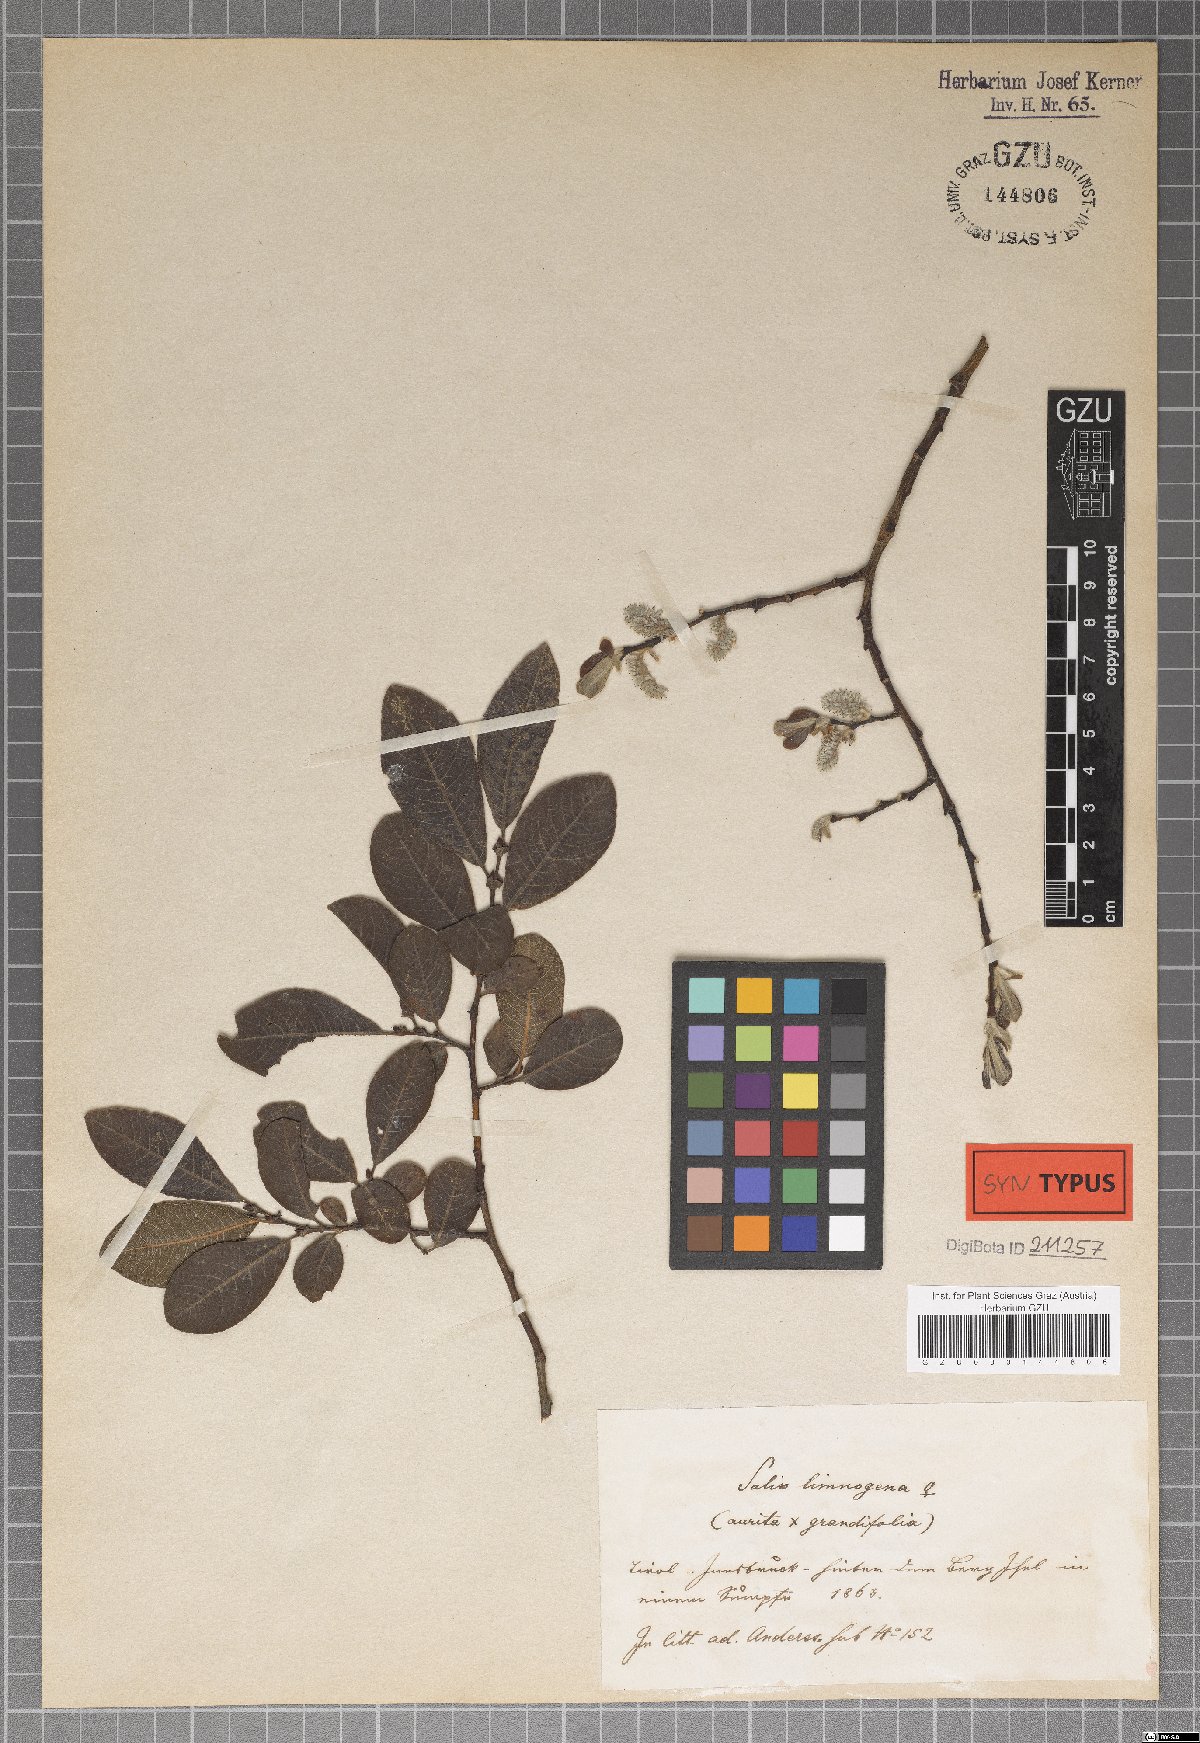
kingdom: Plantae
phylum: Tracheophyta
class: Magnoliopsida
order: Malpighiales
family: Salicaceae
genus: Salix
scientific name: Salix limnogena
